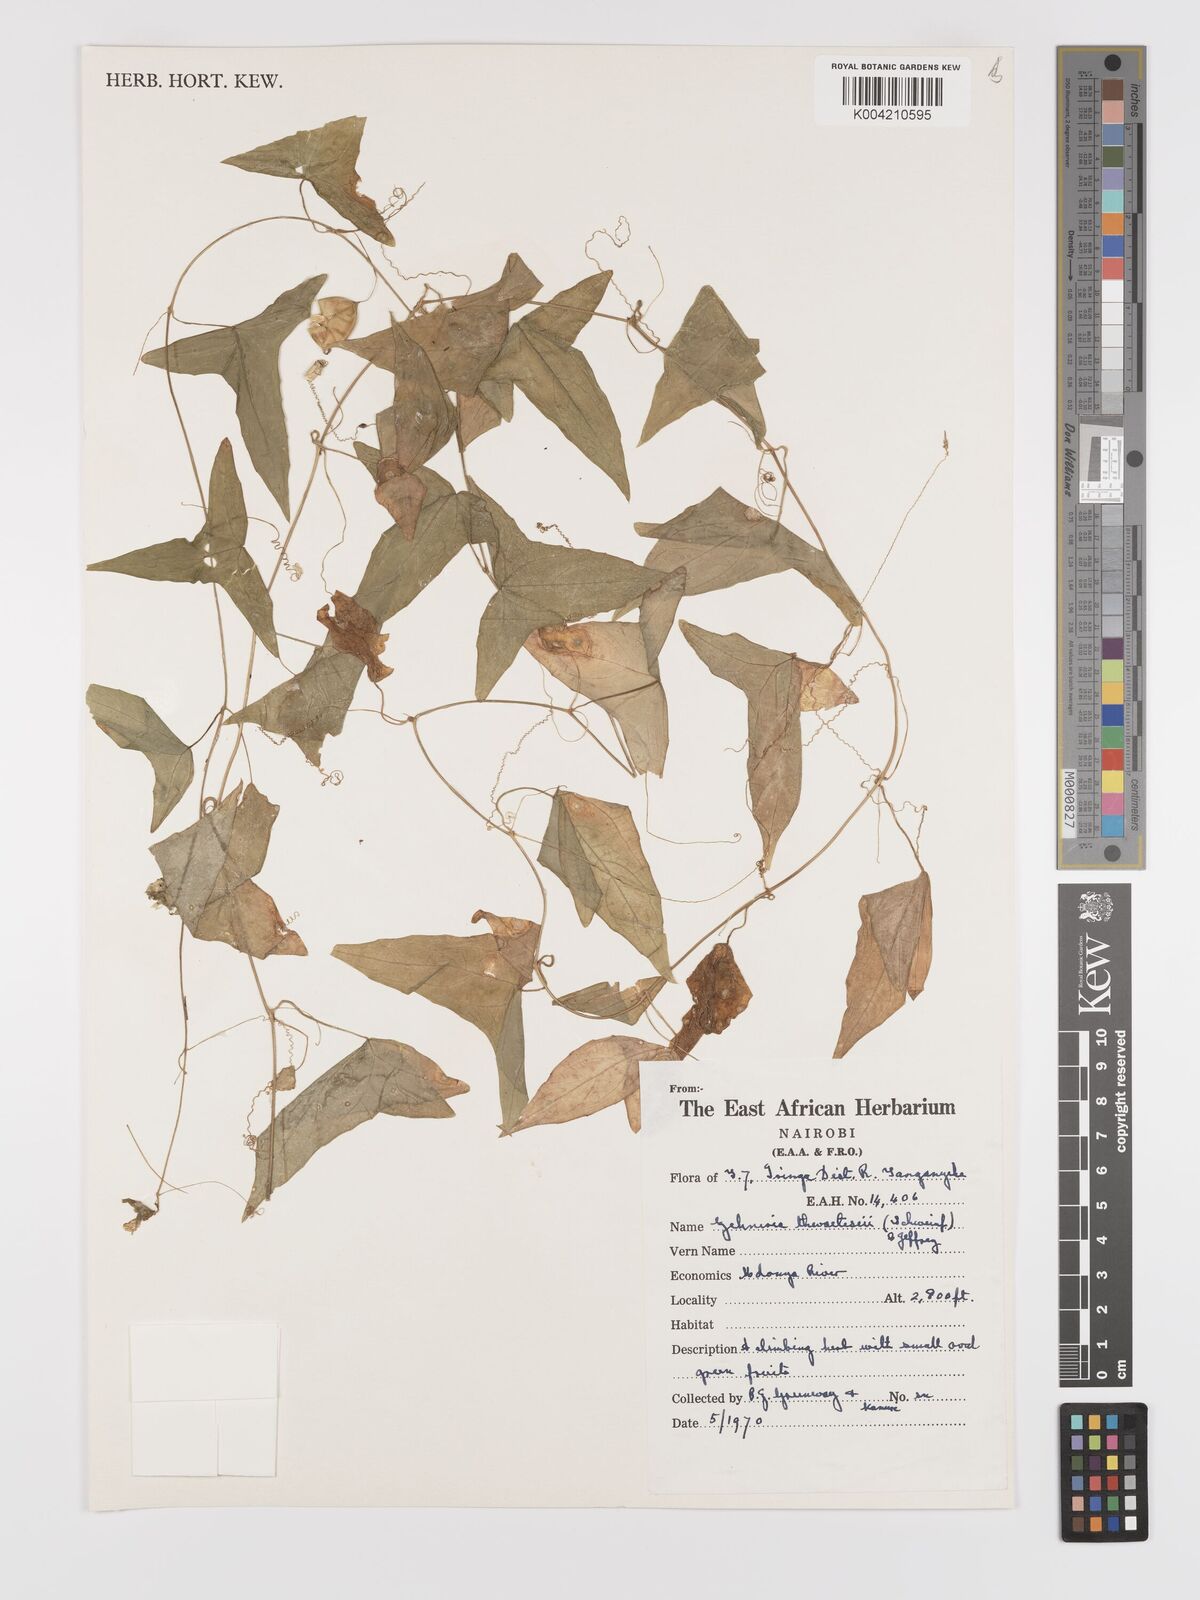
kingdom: Plantae
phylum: Tracheophyta
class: Magnoliopsida
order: Cucurbitales
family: Cucurbitaceae
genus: Zehneria
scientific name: Zehneria thwaitesii
